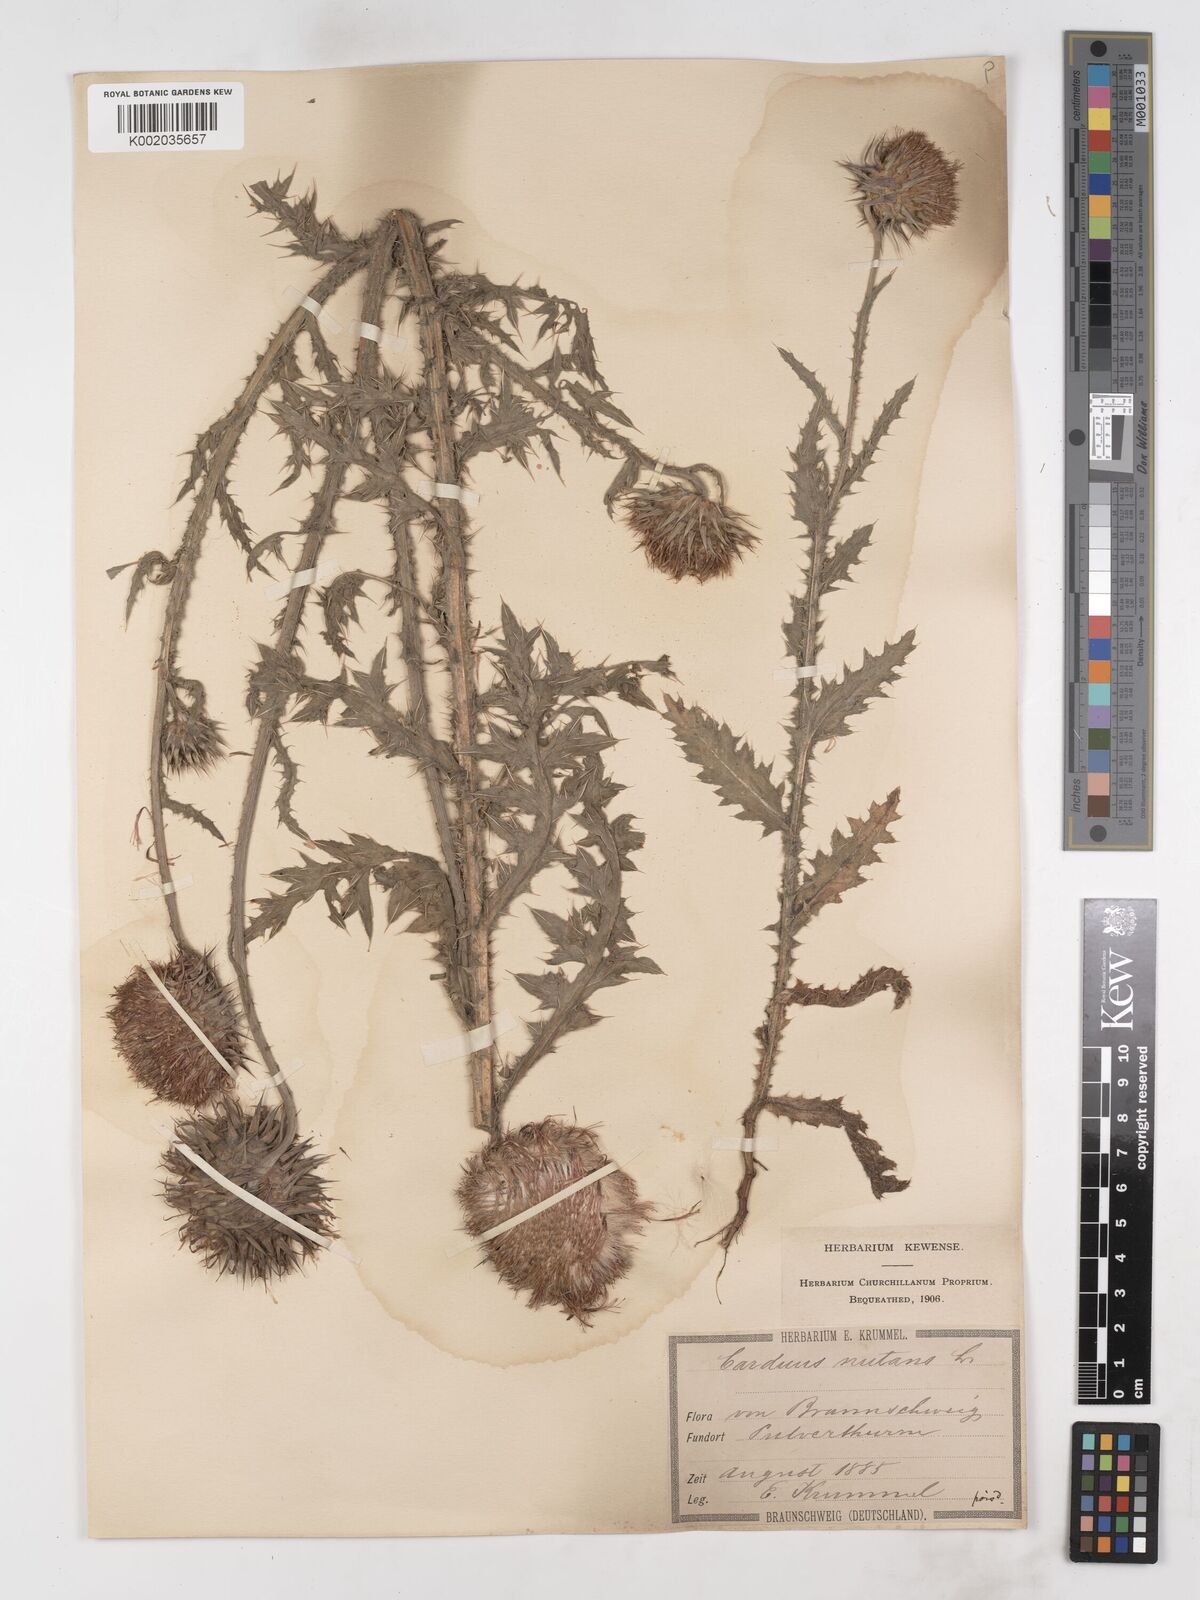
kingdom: Plantae
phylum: Tracheophyta
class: Magnoliopsida
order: Asterales
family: Asteraceae
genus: Carduus
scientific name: Carduus nutans
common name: Musk thistle
